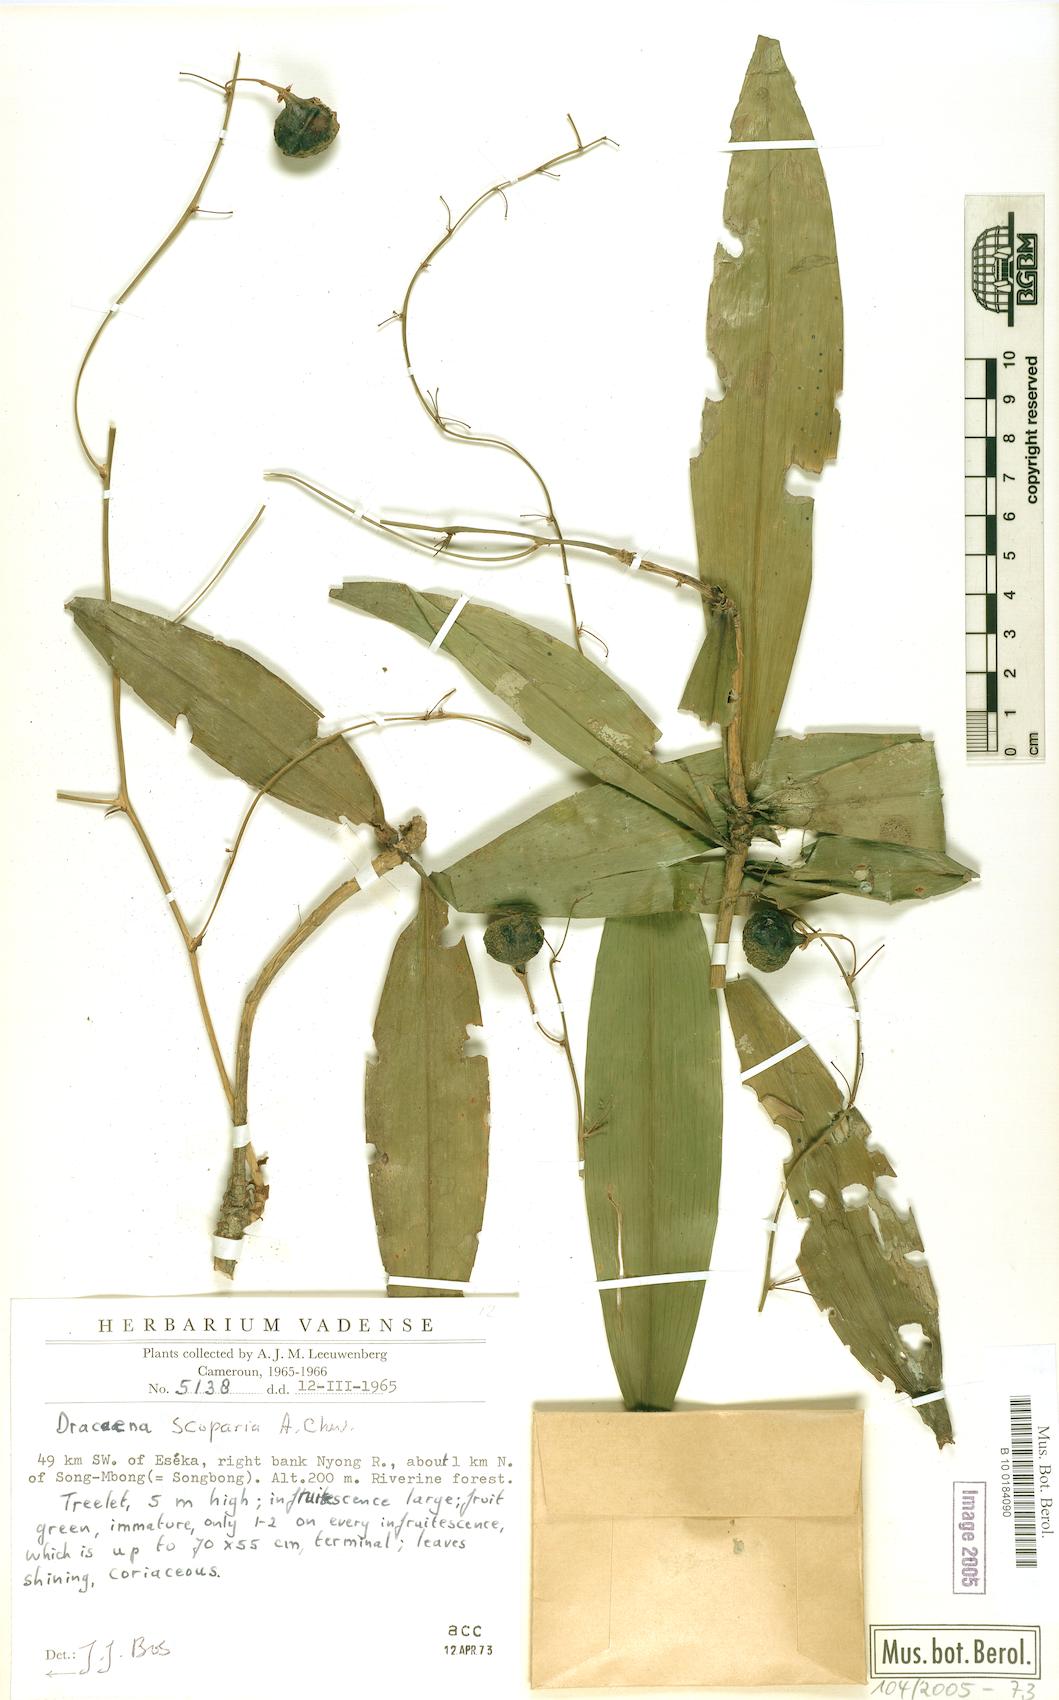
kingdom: Plantae
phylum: Tracheophyta
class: Liliopsida
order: Asparagales
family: Asparagaceae
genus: Dracaena
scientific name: Dracaena cerasifera
